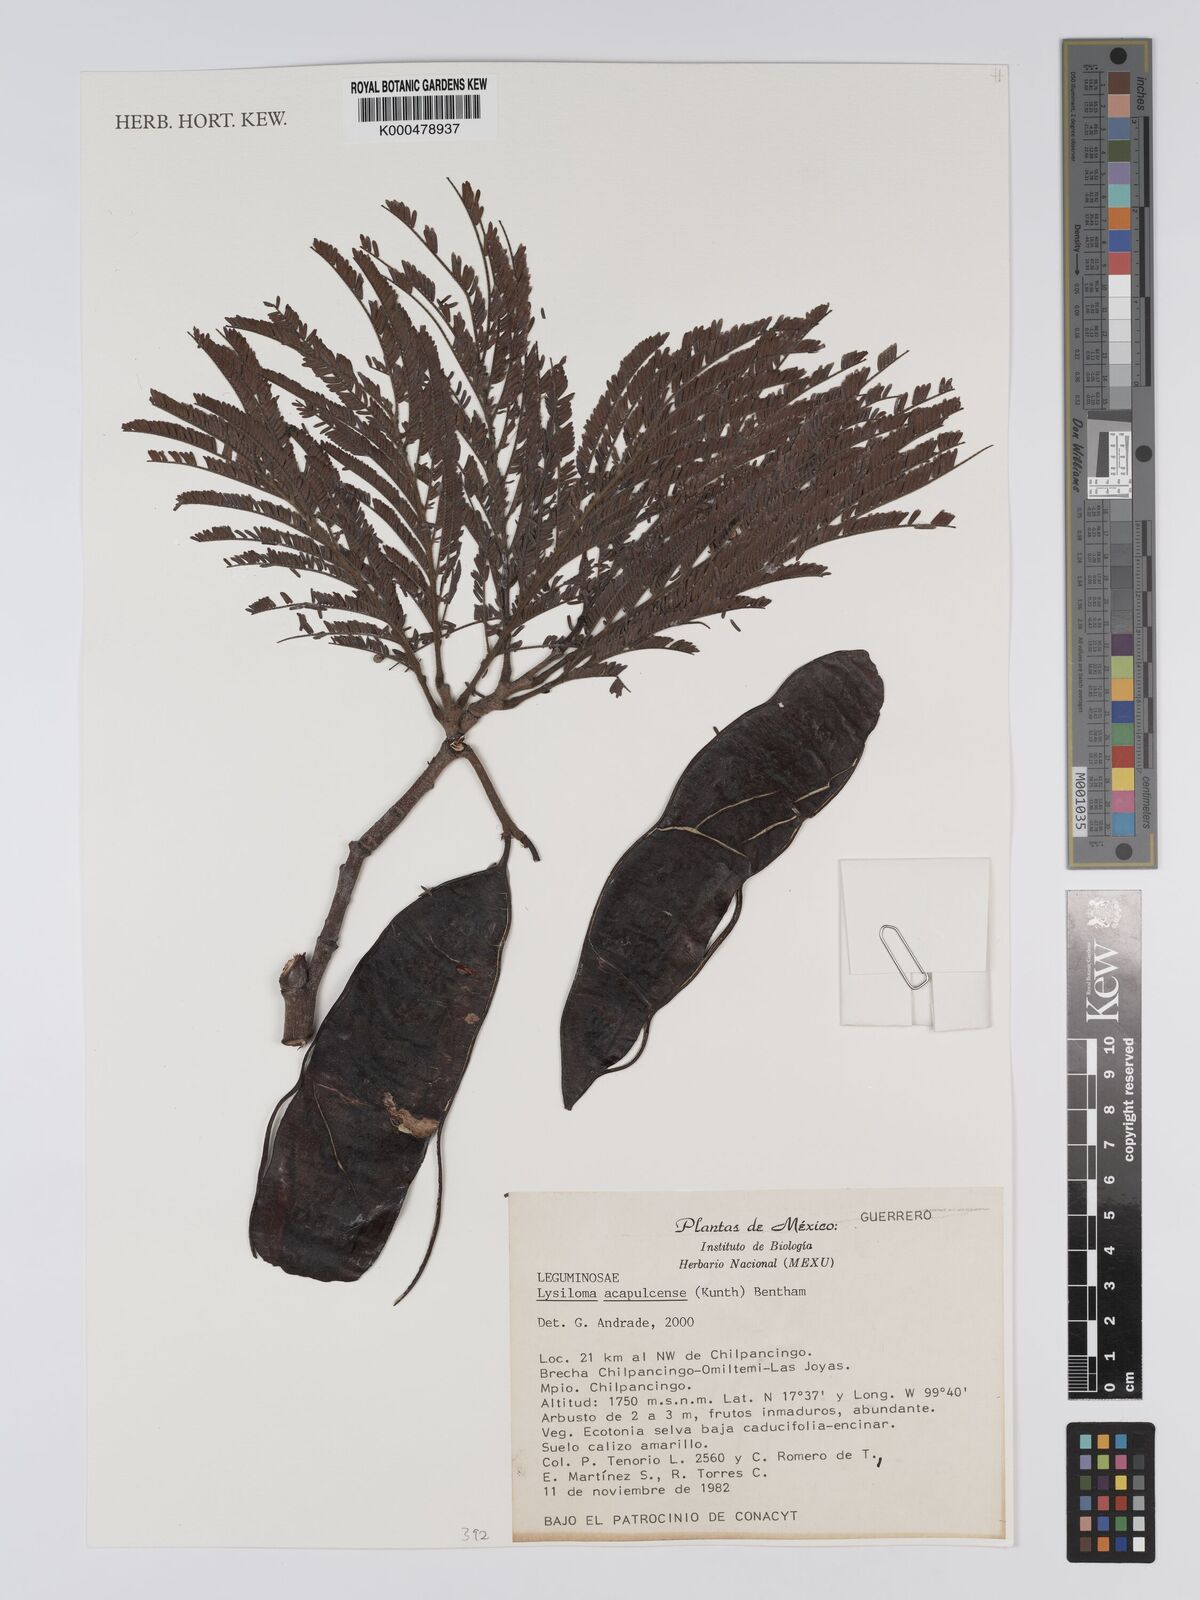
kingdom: Plantae
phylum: Tracheophyta
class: Magnoliopsida
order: Fabales
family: Fabaceae
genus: Lysiloma
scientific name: Lysiloma
